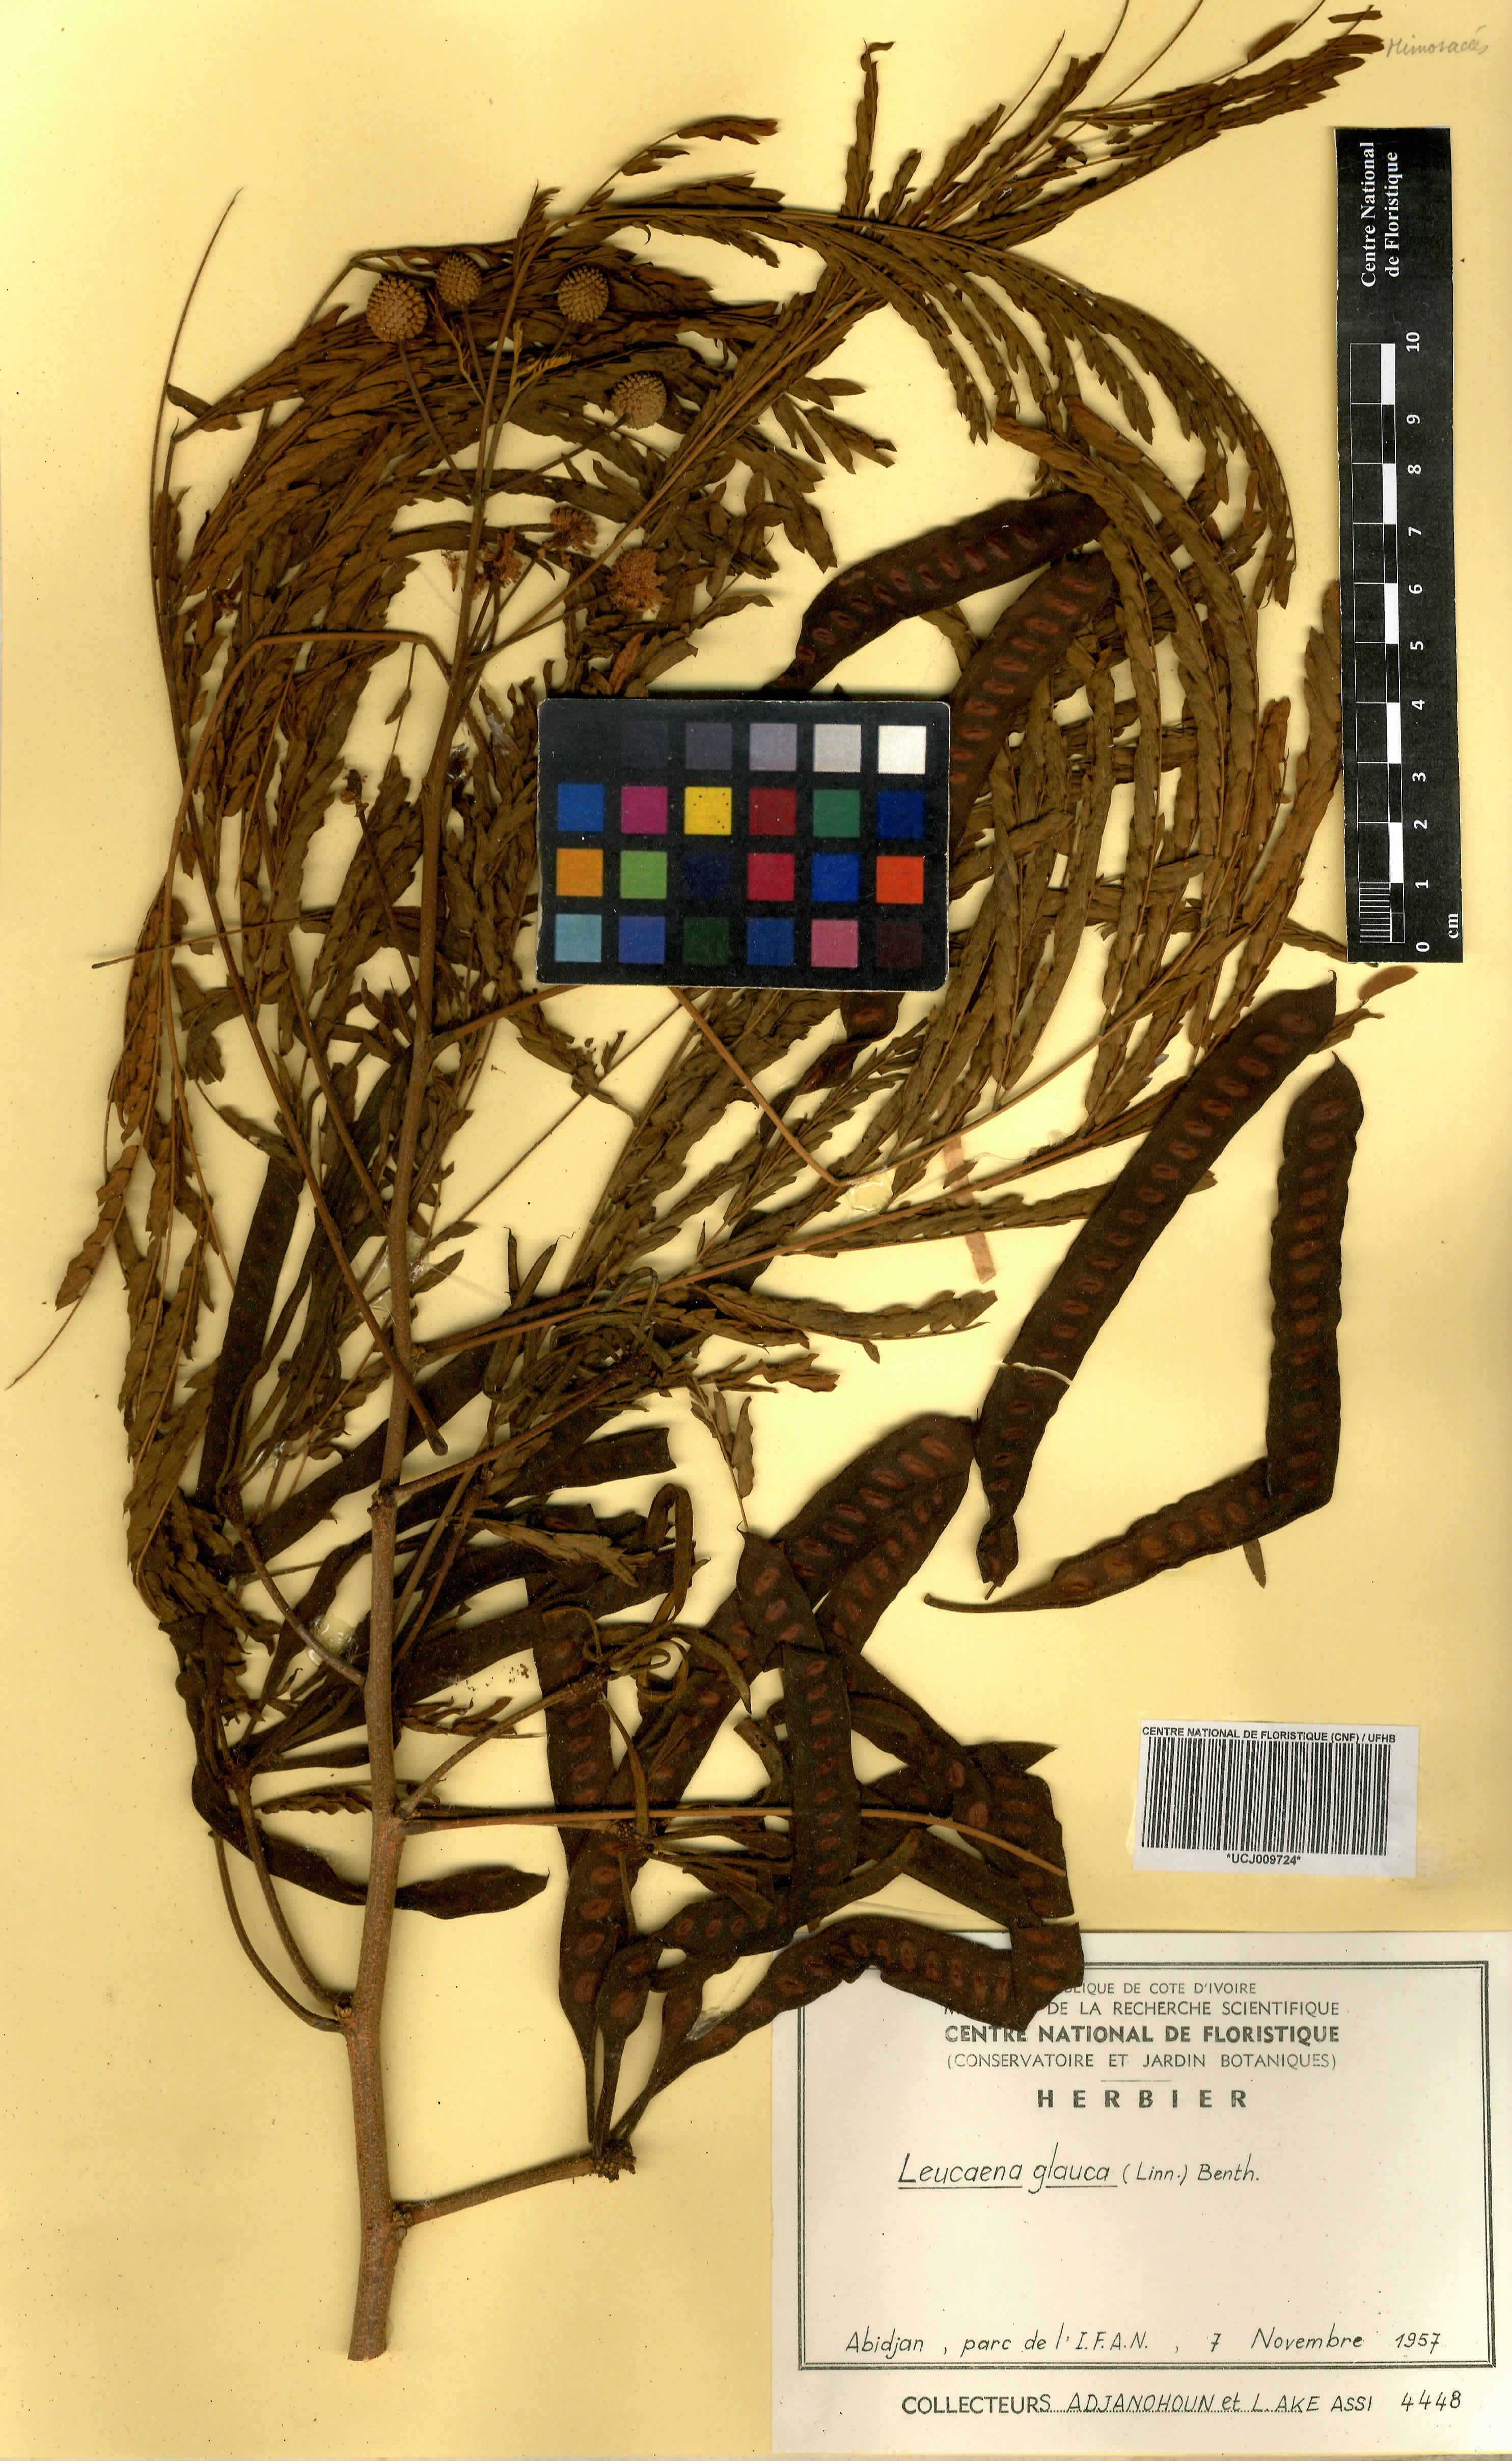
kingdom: Plantae
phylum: Tracheophyta
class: Magnoliopsida
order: Fabales
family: Fabaceae
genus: Acaciella
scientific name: Acaciella glauca
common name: Redwood
